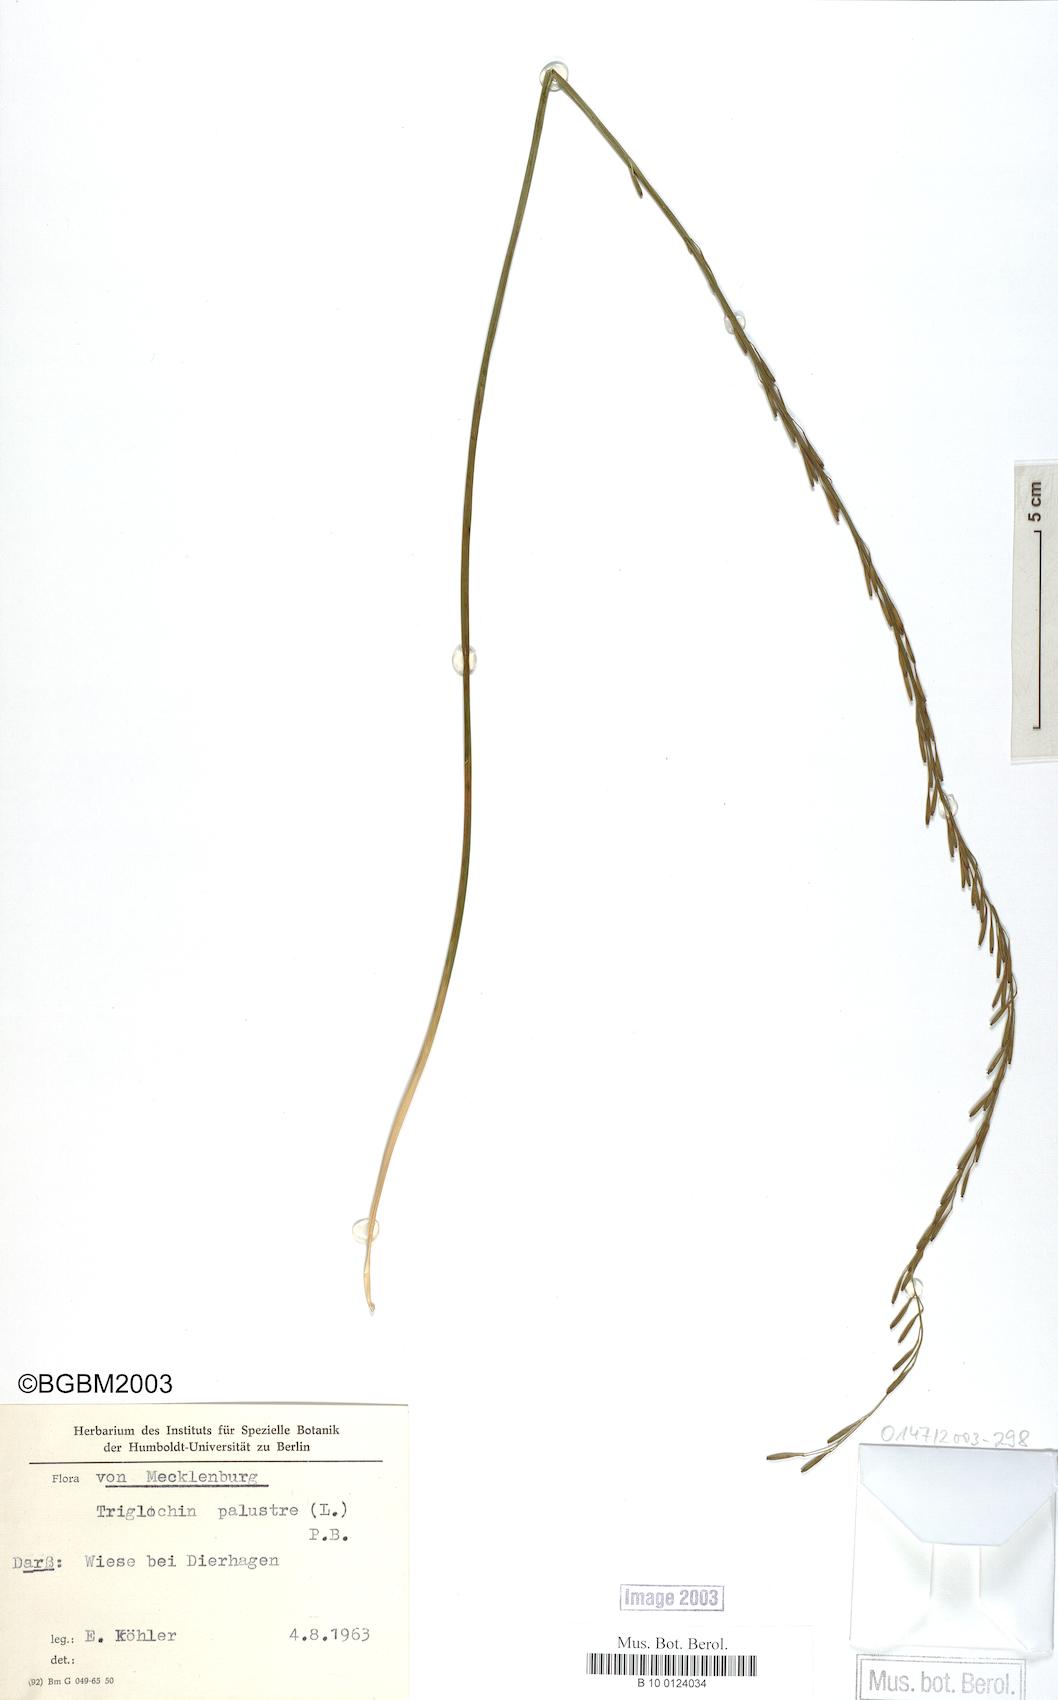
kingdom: Plantae
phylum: Tracheophyta
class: Liliopsida
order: Alismatales
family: Juncaginaceae
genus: Triglochin
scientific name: Triglochin palustris
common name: Marsh arrowgrass
